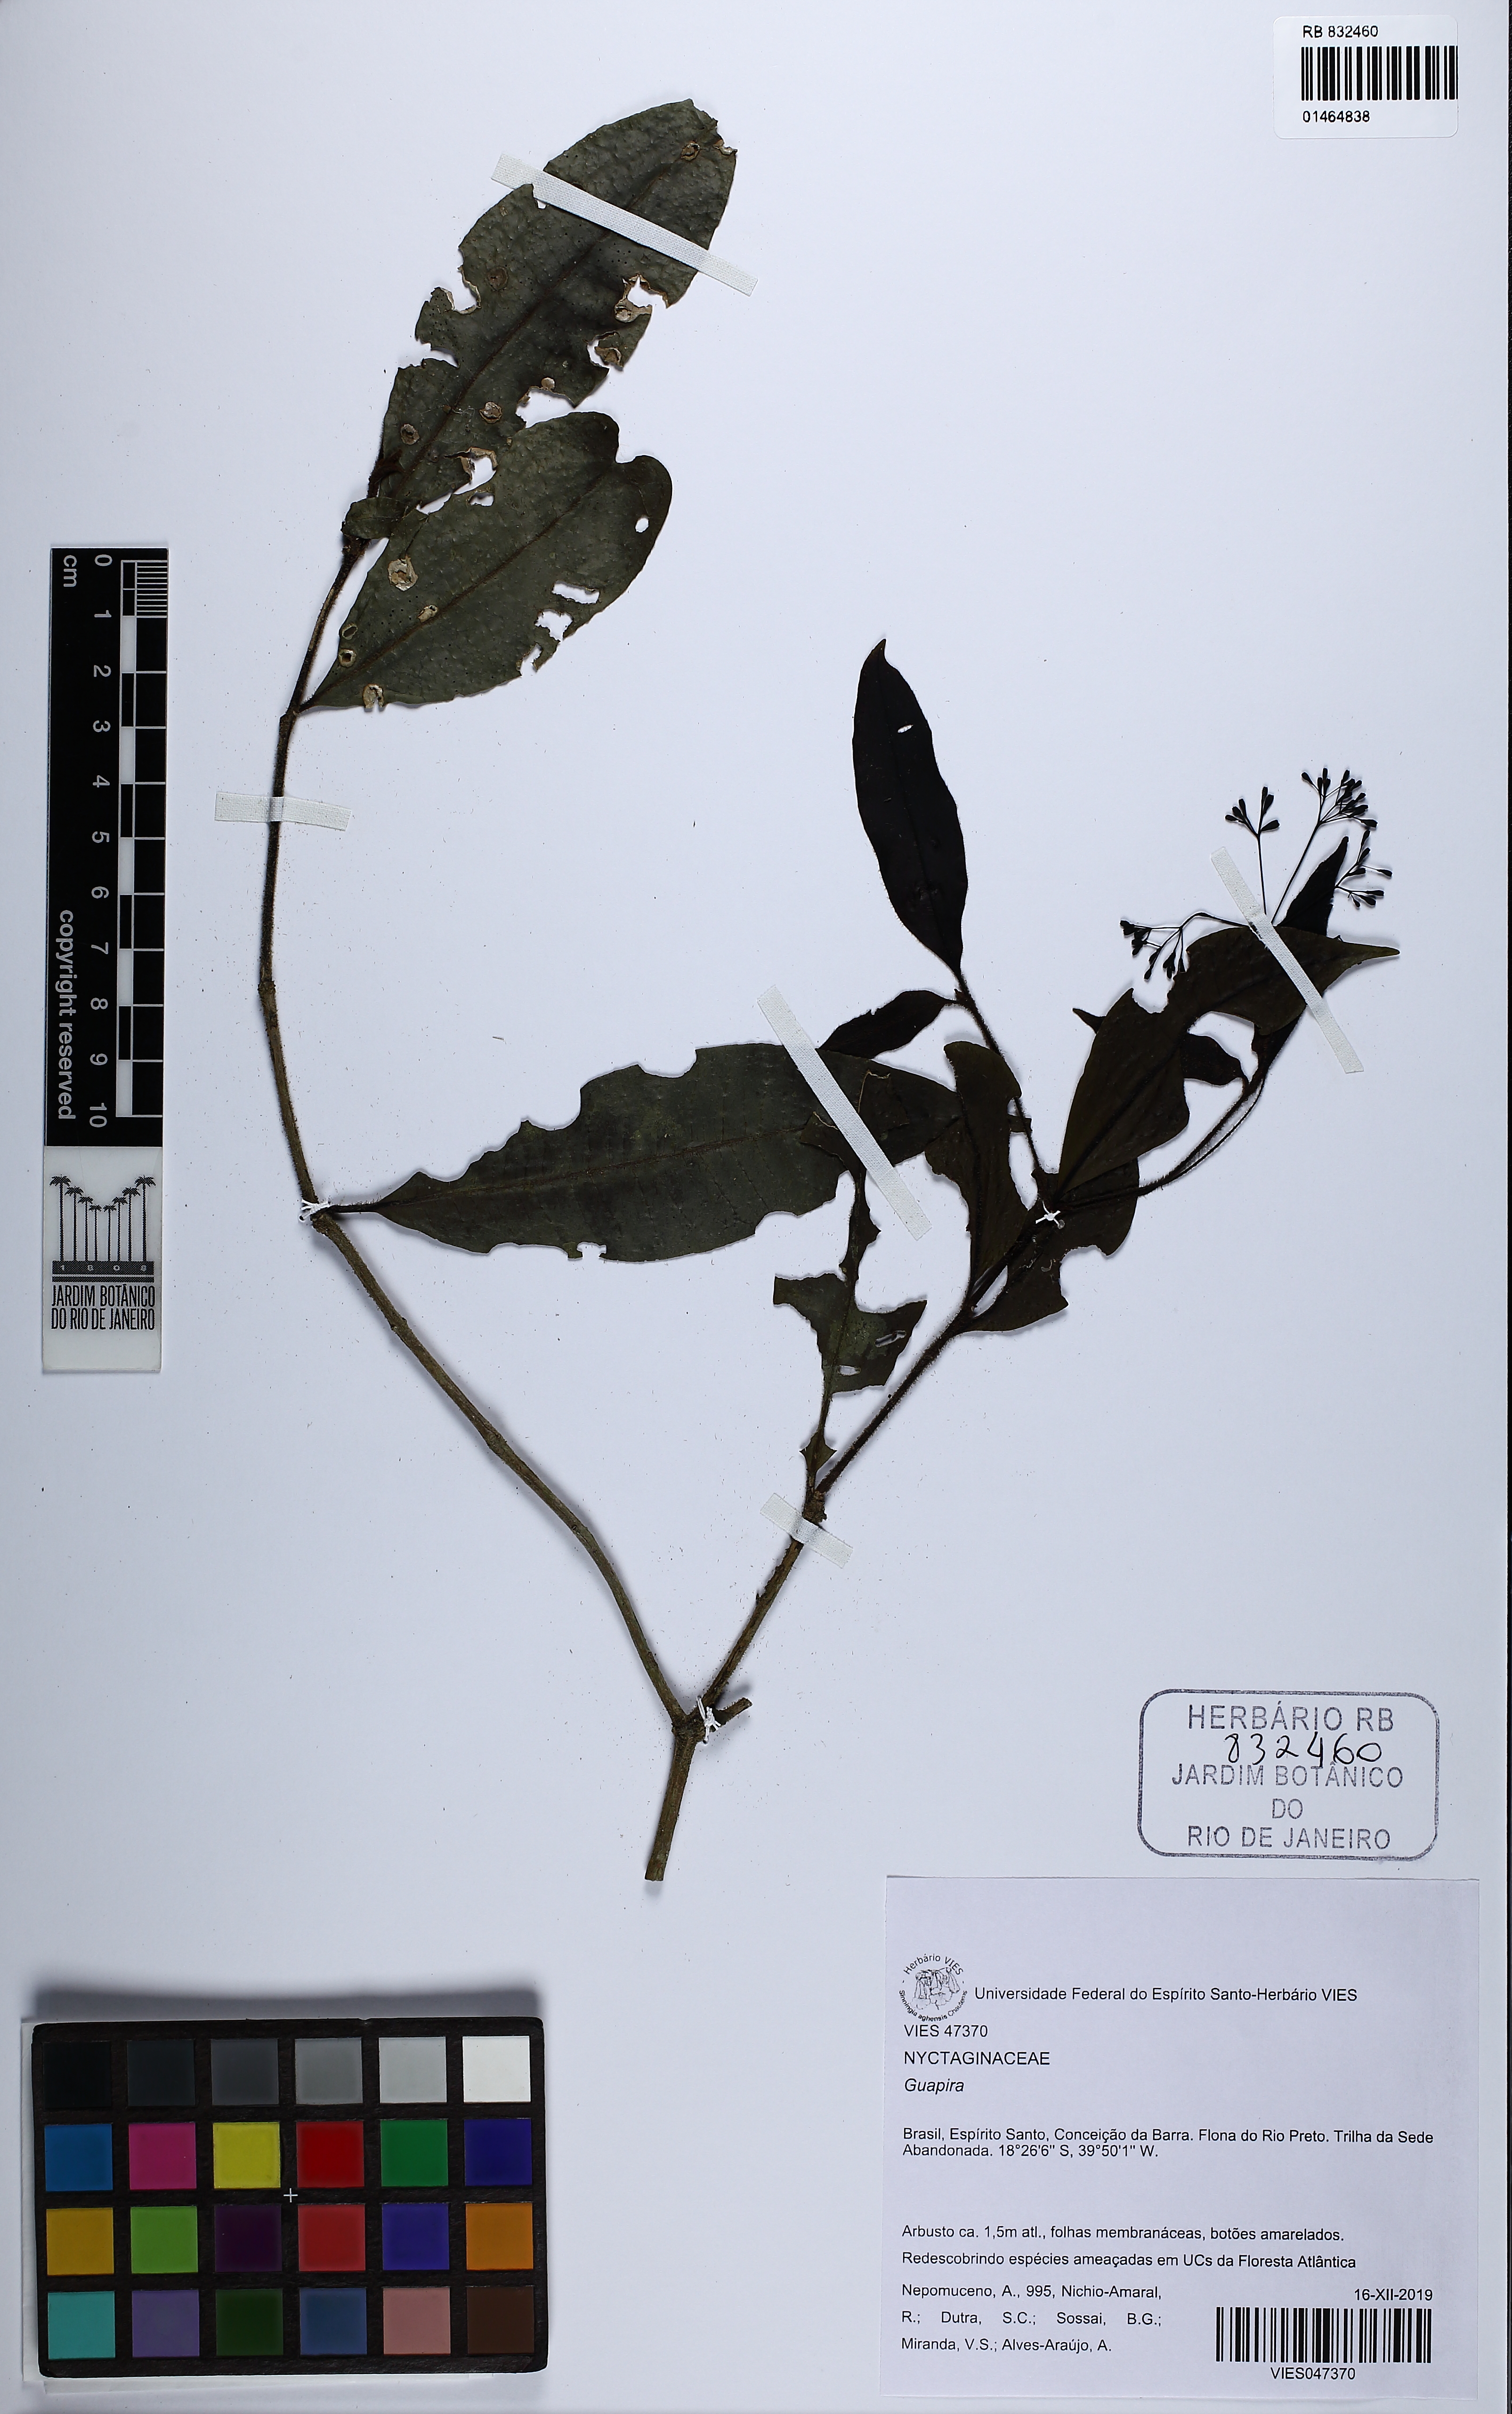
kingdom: Plantae
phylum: Tracheophyta
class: Magnoliopsida
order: Caryophyllales
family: Nyctaginaceae
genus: Guapira
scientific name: Guapira
